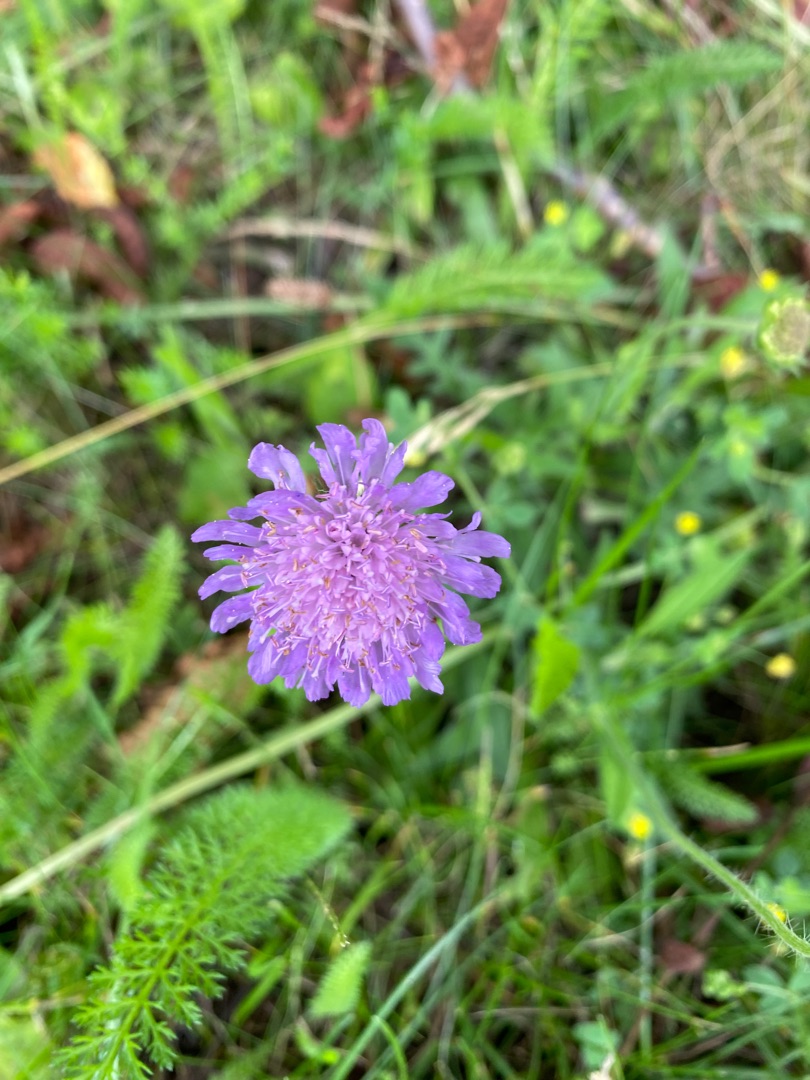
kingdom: Plantae
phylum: Tracheophyta
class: Magnoliopsida
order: Dipsacales
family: Caprifoliaceae
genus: Knautia
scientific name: Knautia arvensis
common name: Blåhat
